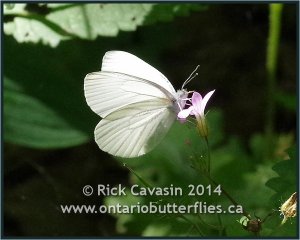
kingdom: Animalia
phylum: Arthropoda
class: Insecta
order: Lepidoptera
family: Pieridae
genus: Pieris
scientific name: Pieris oleracea
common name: Mustard White
